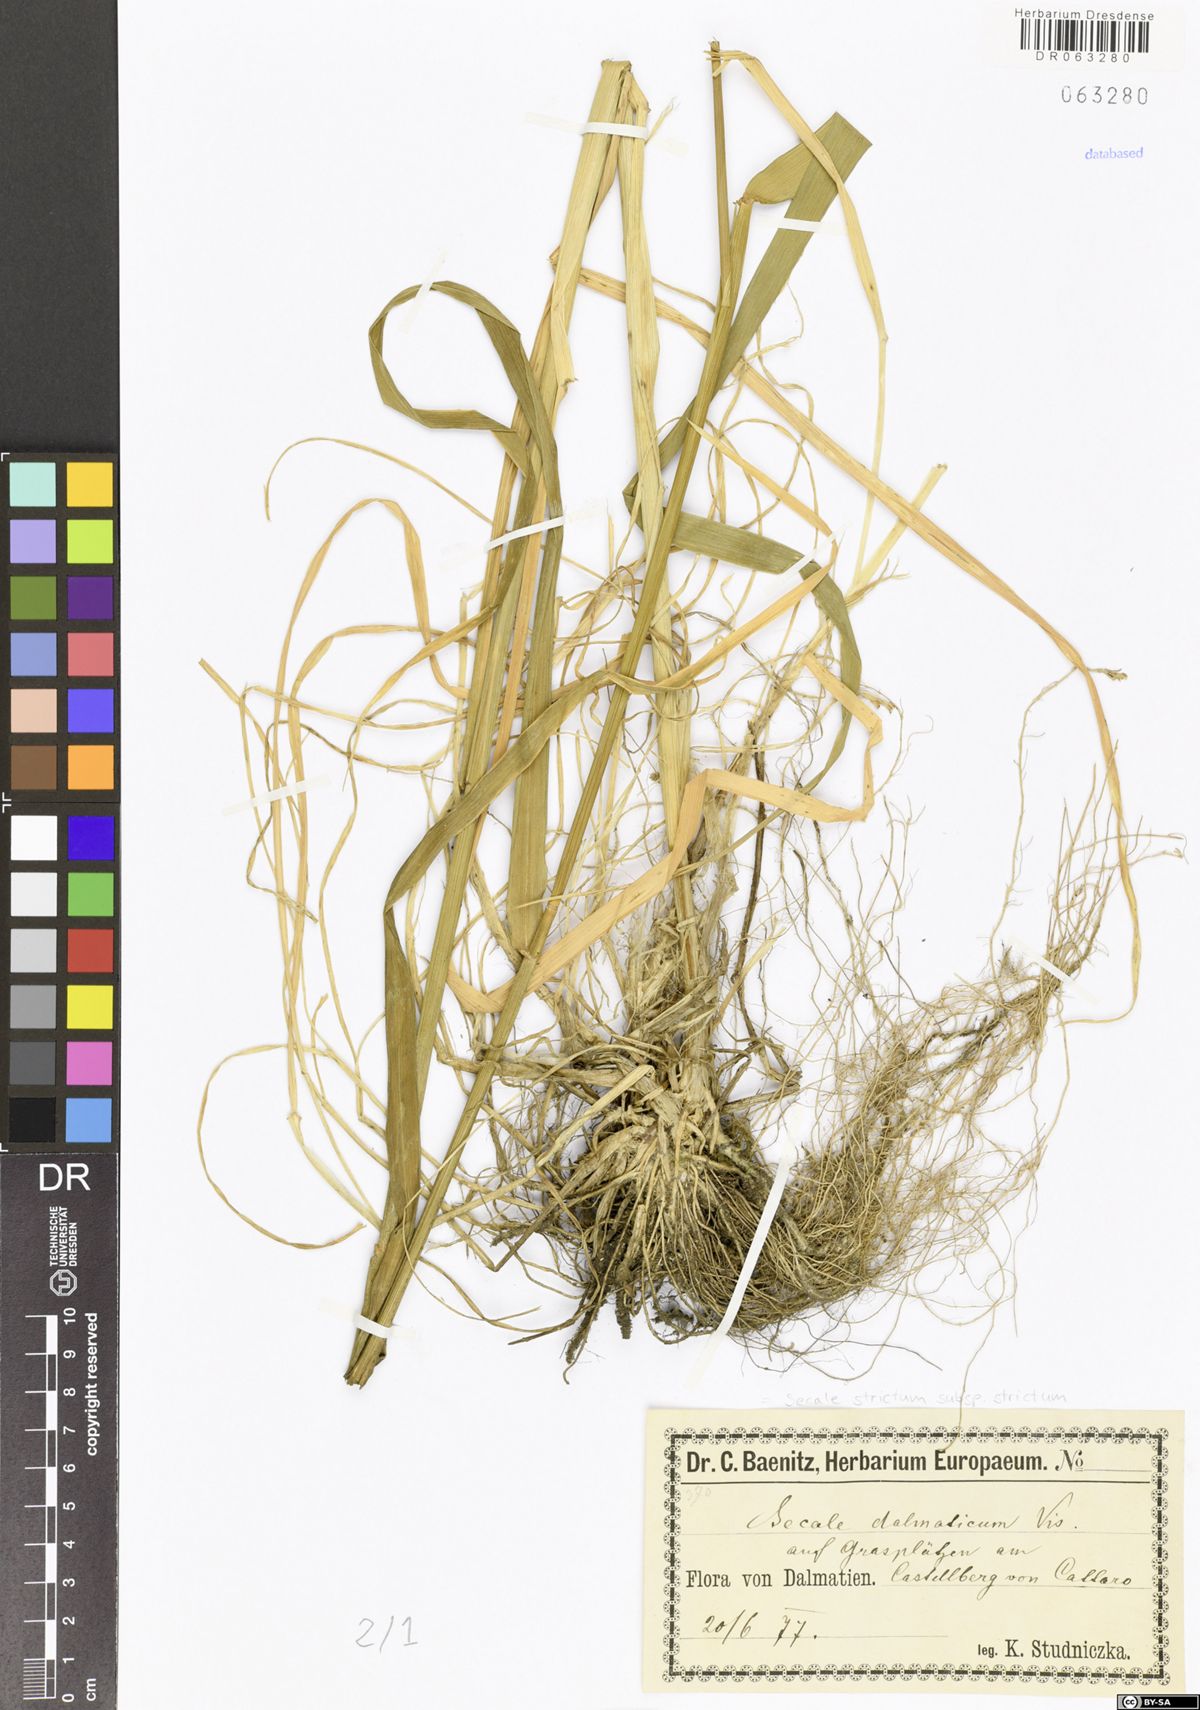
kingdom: Plantae
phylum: Tracheophyta
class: Liliopsida
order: Poales
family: Poaceae
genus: Secale
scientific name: Secale strictum
